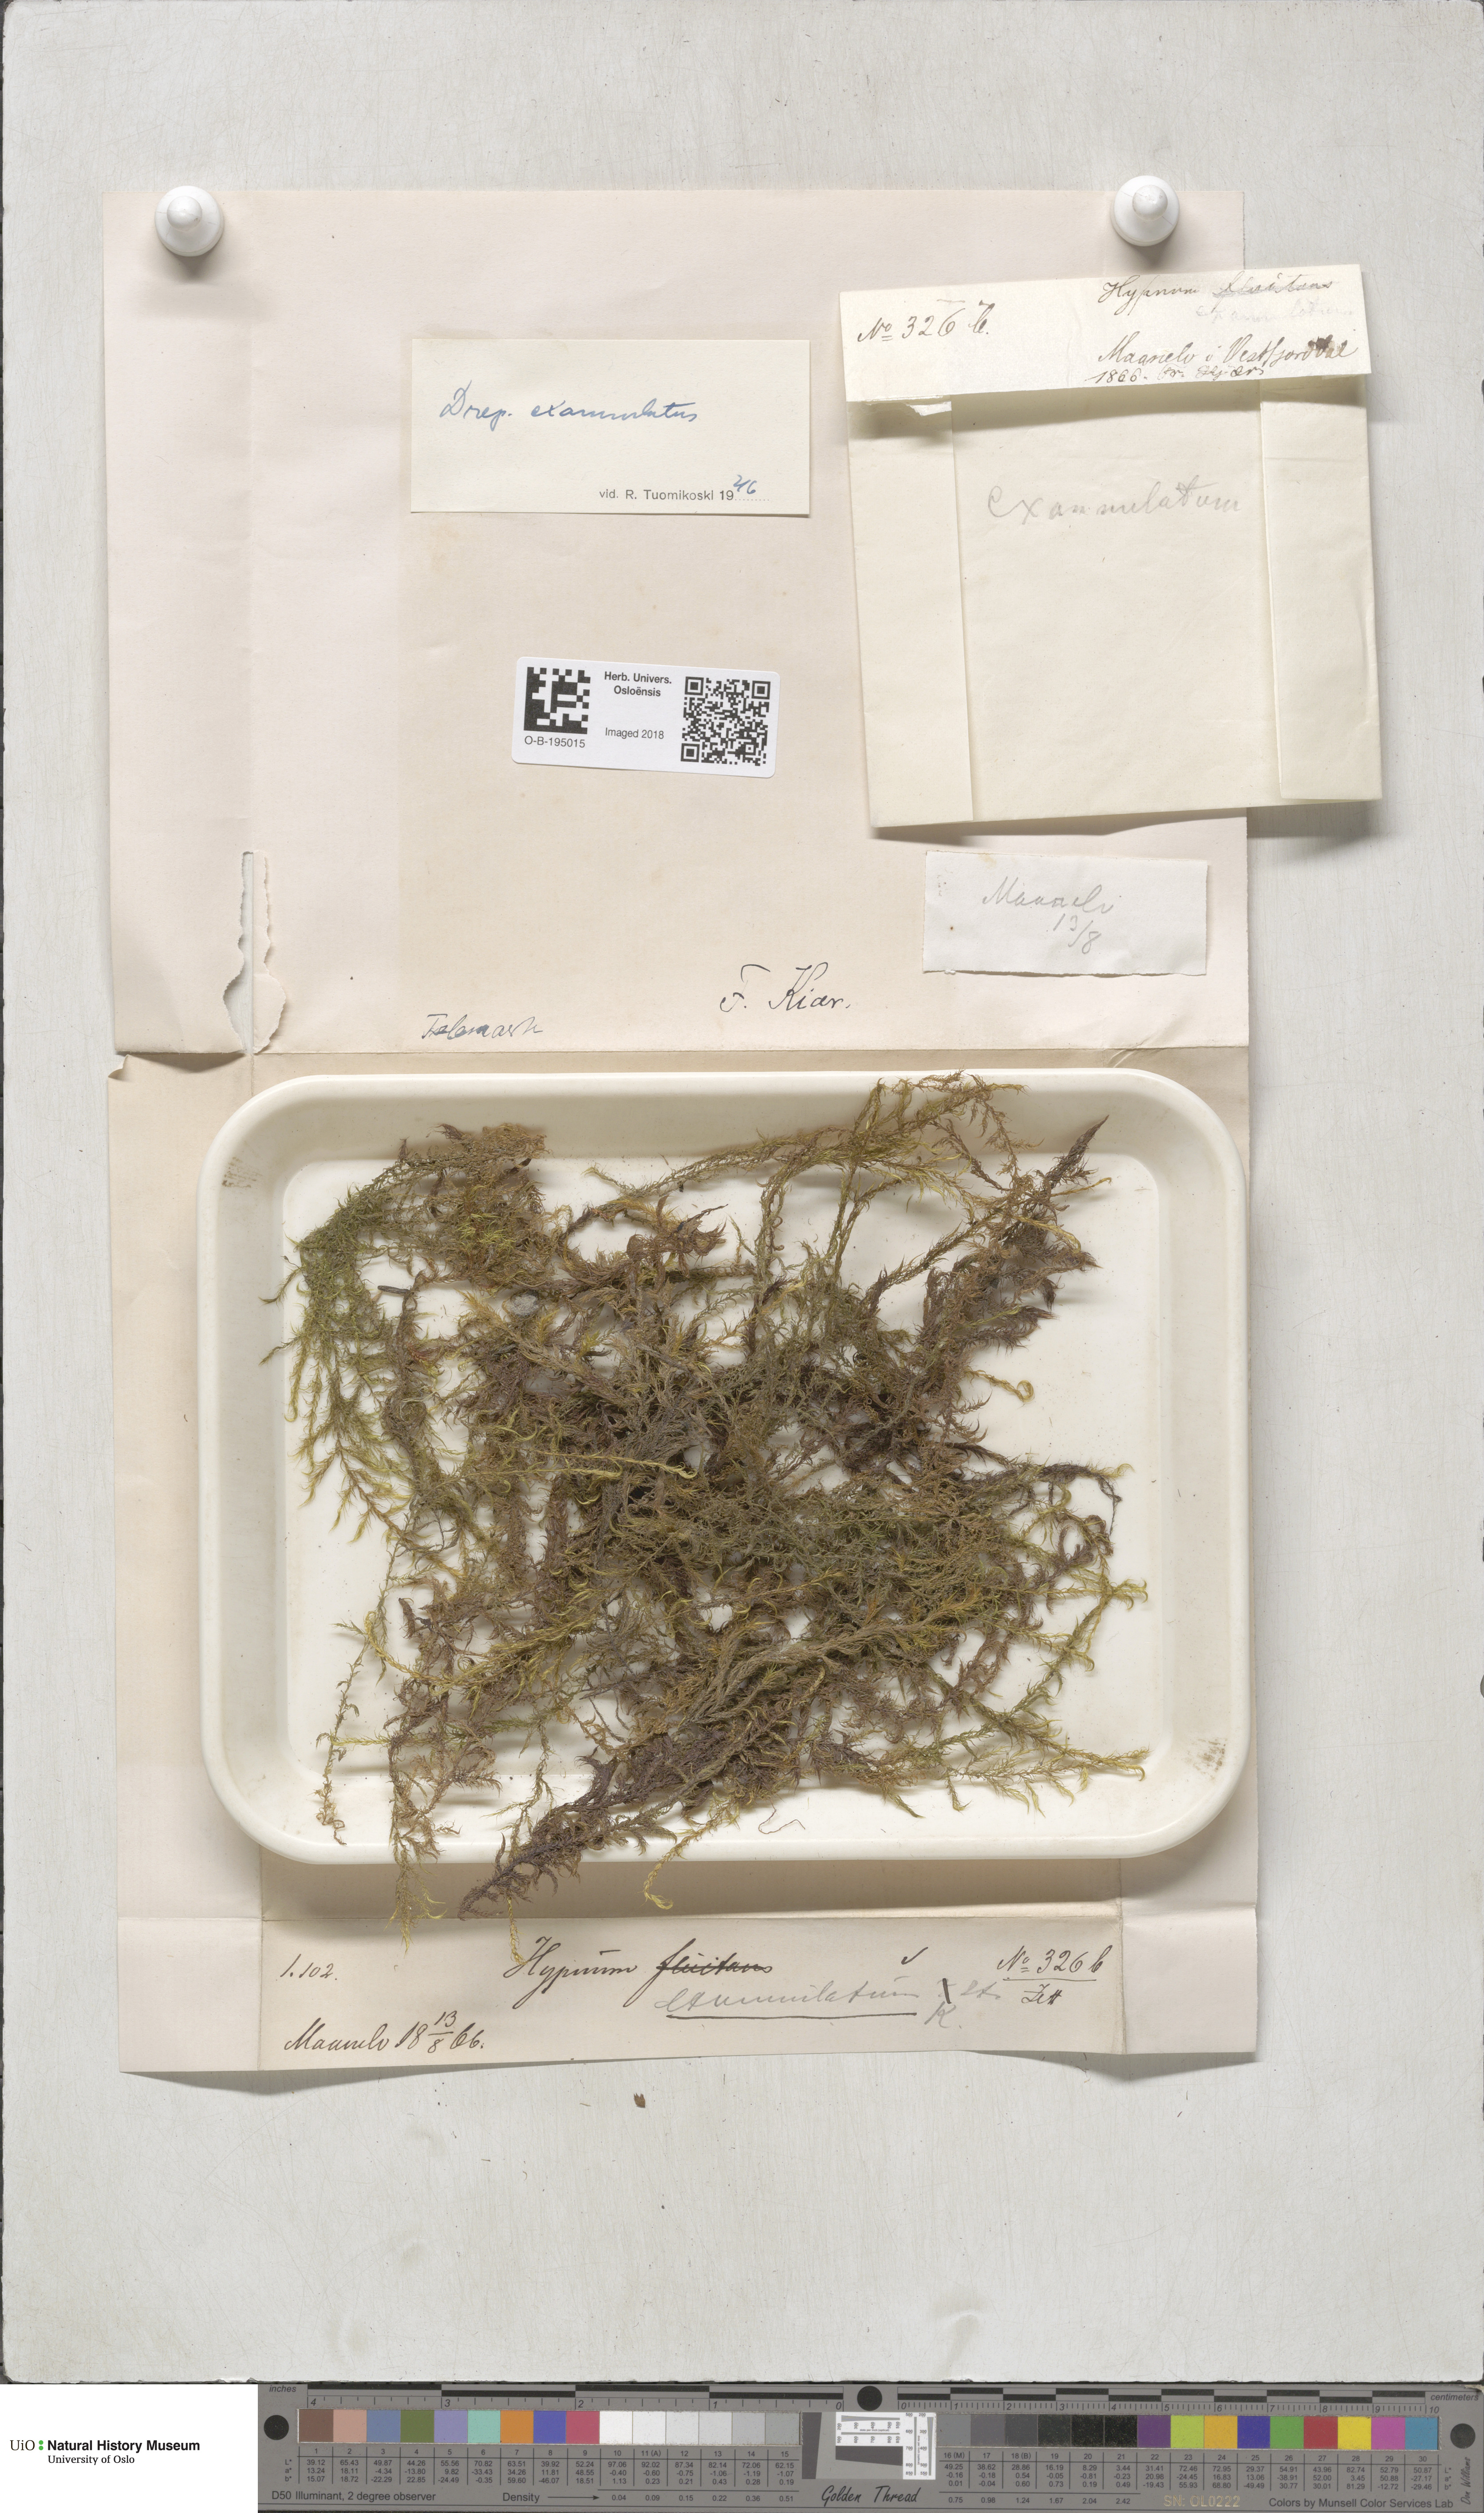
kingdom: Plantae
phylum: Bryophyta
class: Bryopsida
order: Hypnales
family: Calliergonaceae
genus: Sarmentypnum
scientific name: Sarmentypnum exannulatum
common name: Ringless spoon moss
